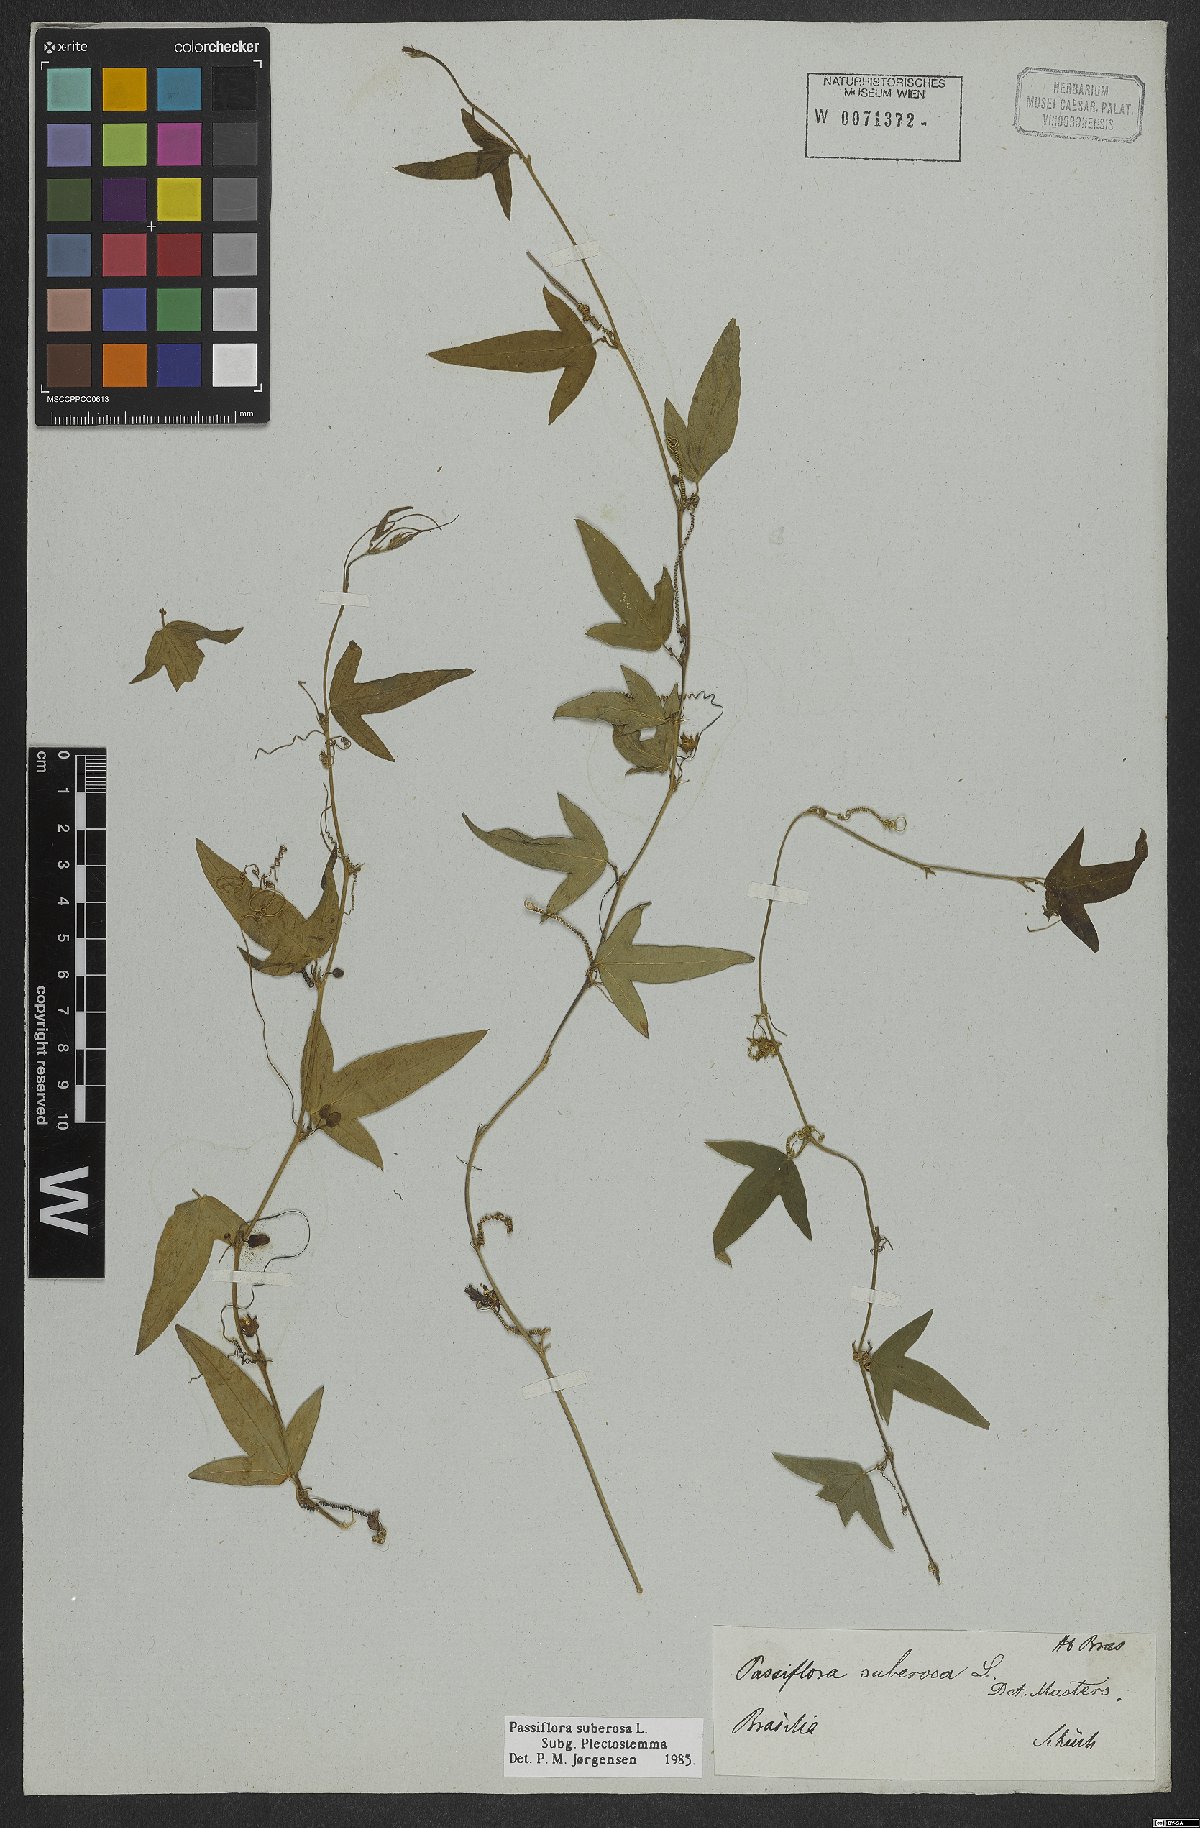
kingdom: Plantae
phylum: Tracheophyta
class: Magnoliopsida
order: Malpighiales
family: Passifloraceae
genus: Passiflora
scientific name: Passiflora suberosa
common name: Wild passionfruit
